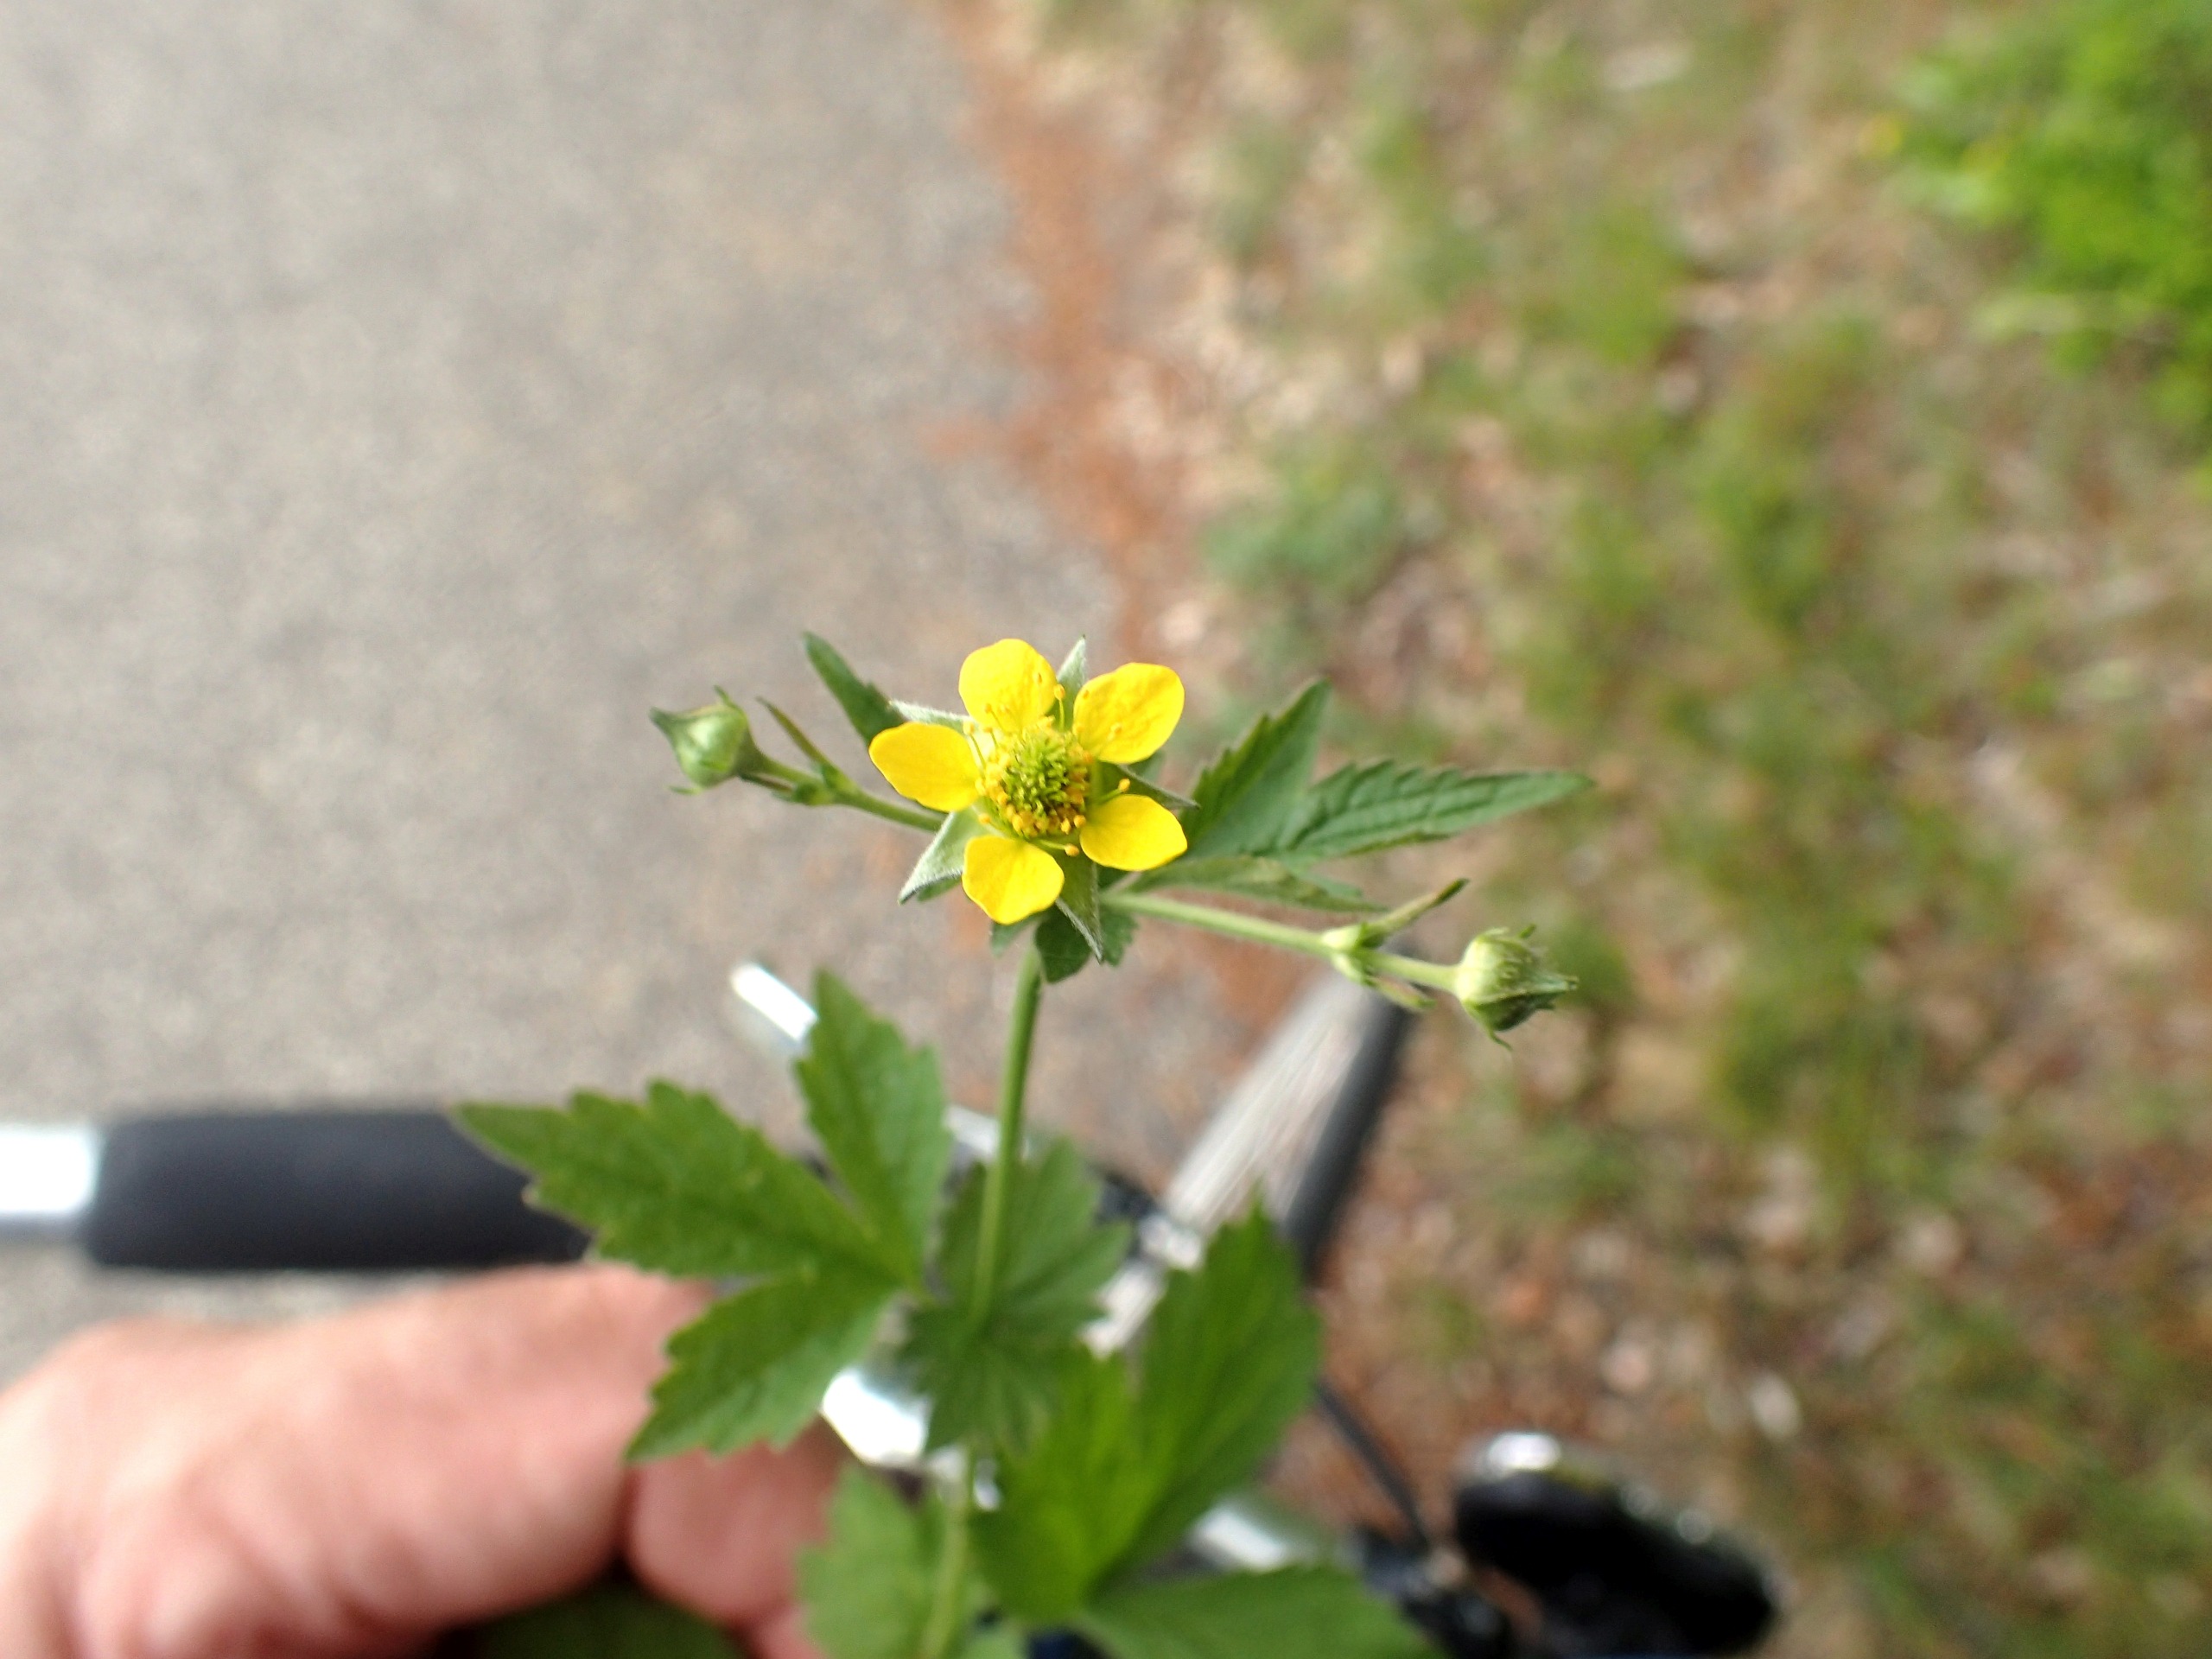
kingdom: Plantae
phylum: Tracheophyta
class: Magnoliopsida
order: Rosales
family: Rosaceae
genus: Geum
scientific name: Geum urbanum
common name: Feber-nellikerod
